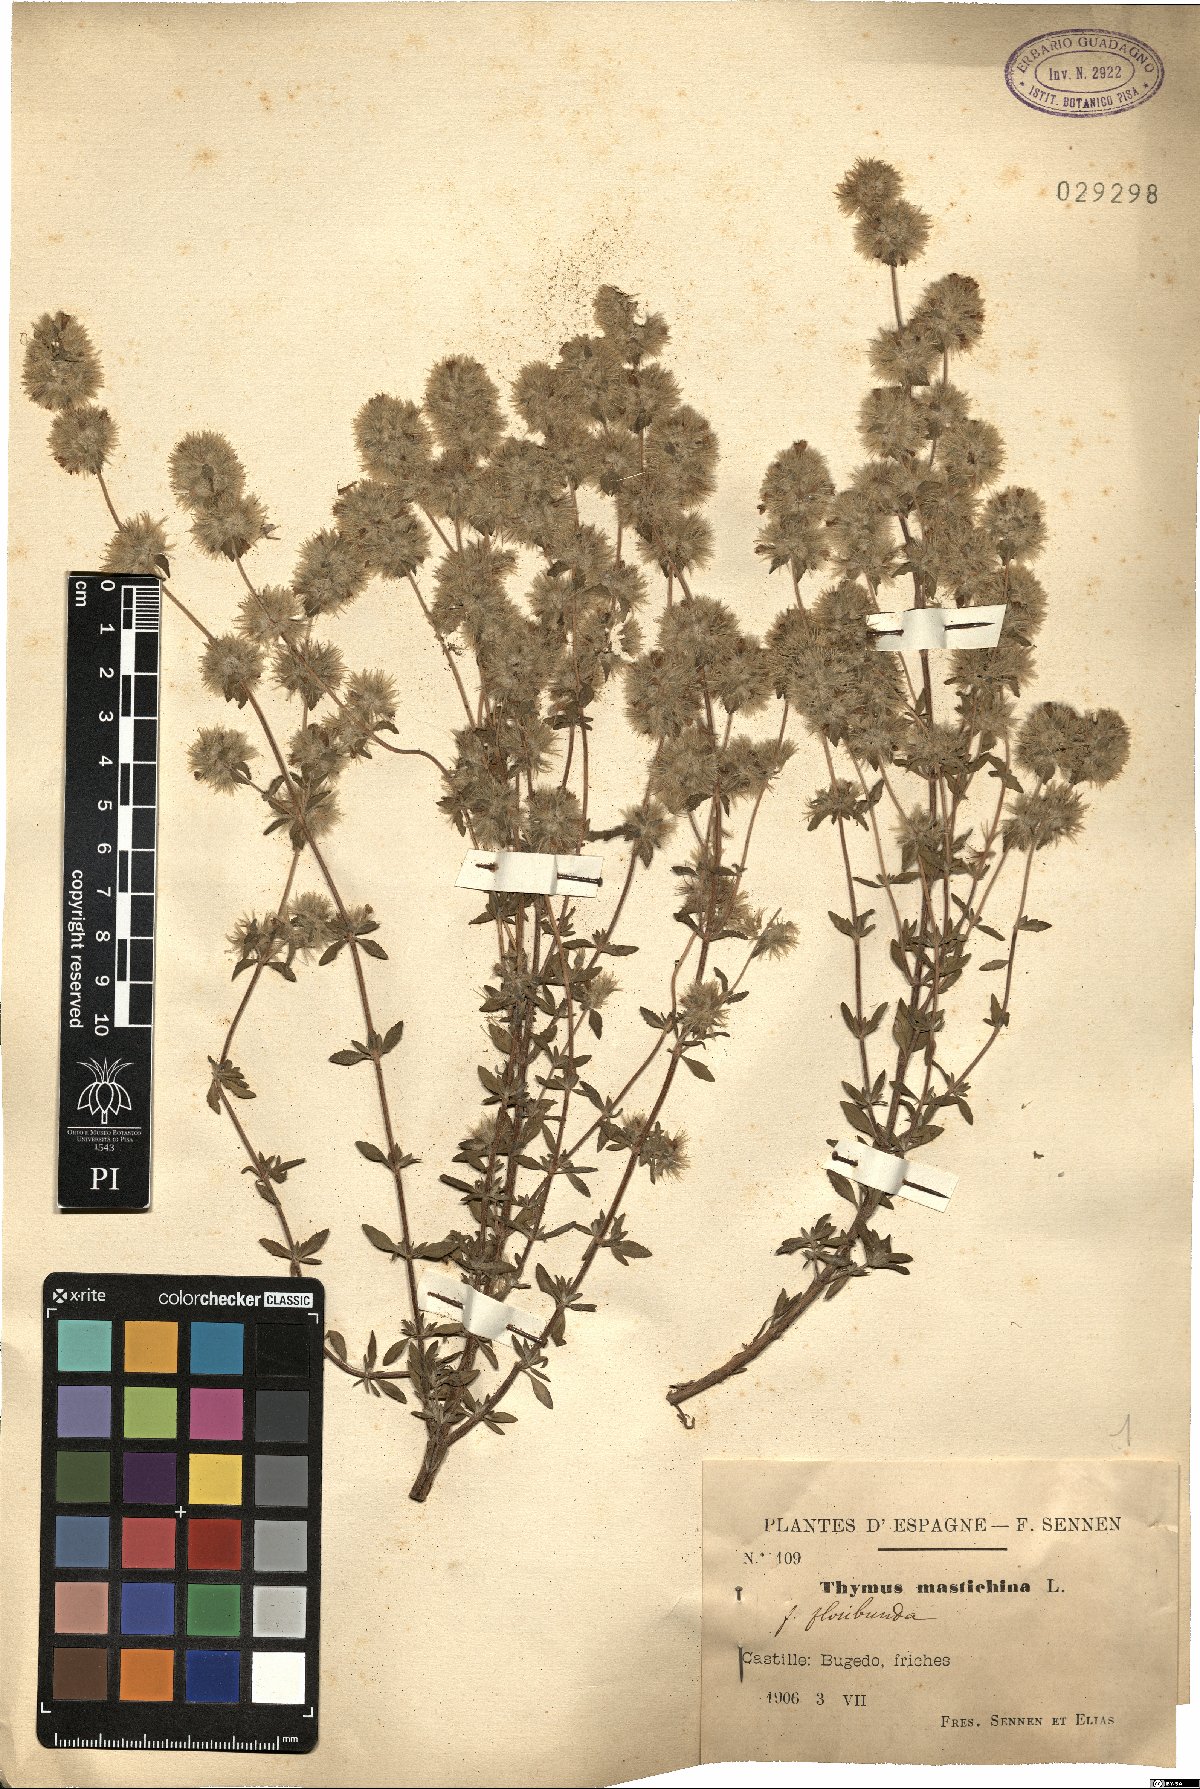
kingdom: Plantae
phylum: Tracheophyta
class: Magnoliopsida
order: Lamiales
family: Lamiaceae
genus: Thymus
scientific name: Thymus mastichina
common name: Mastic thyme
